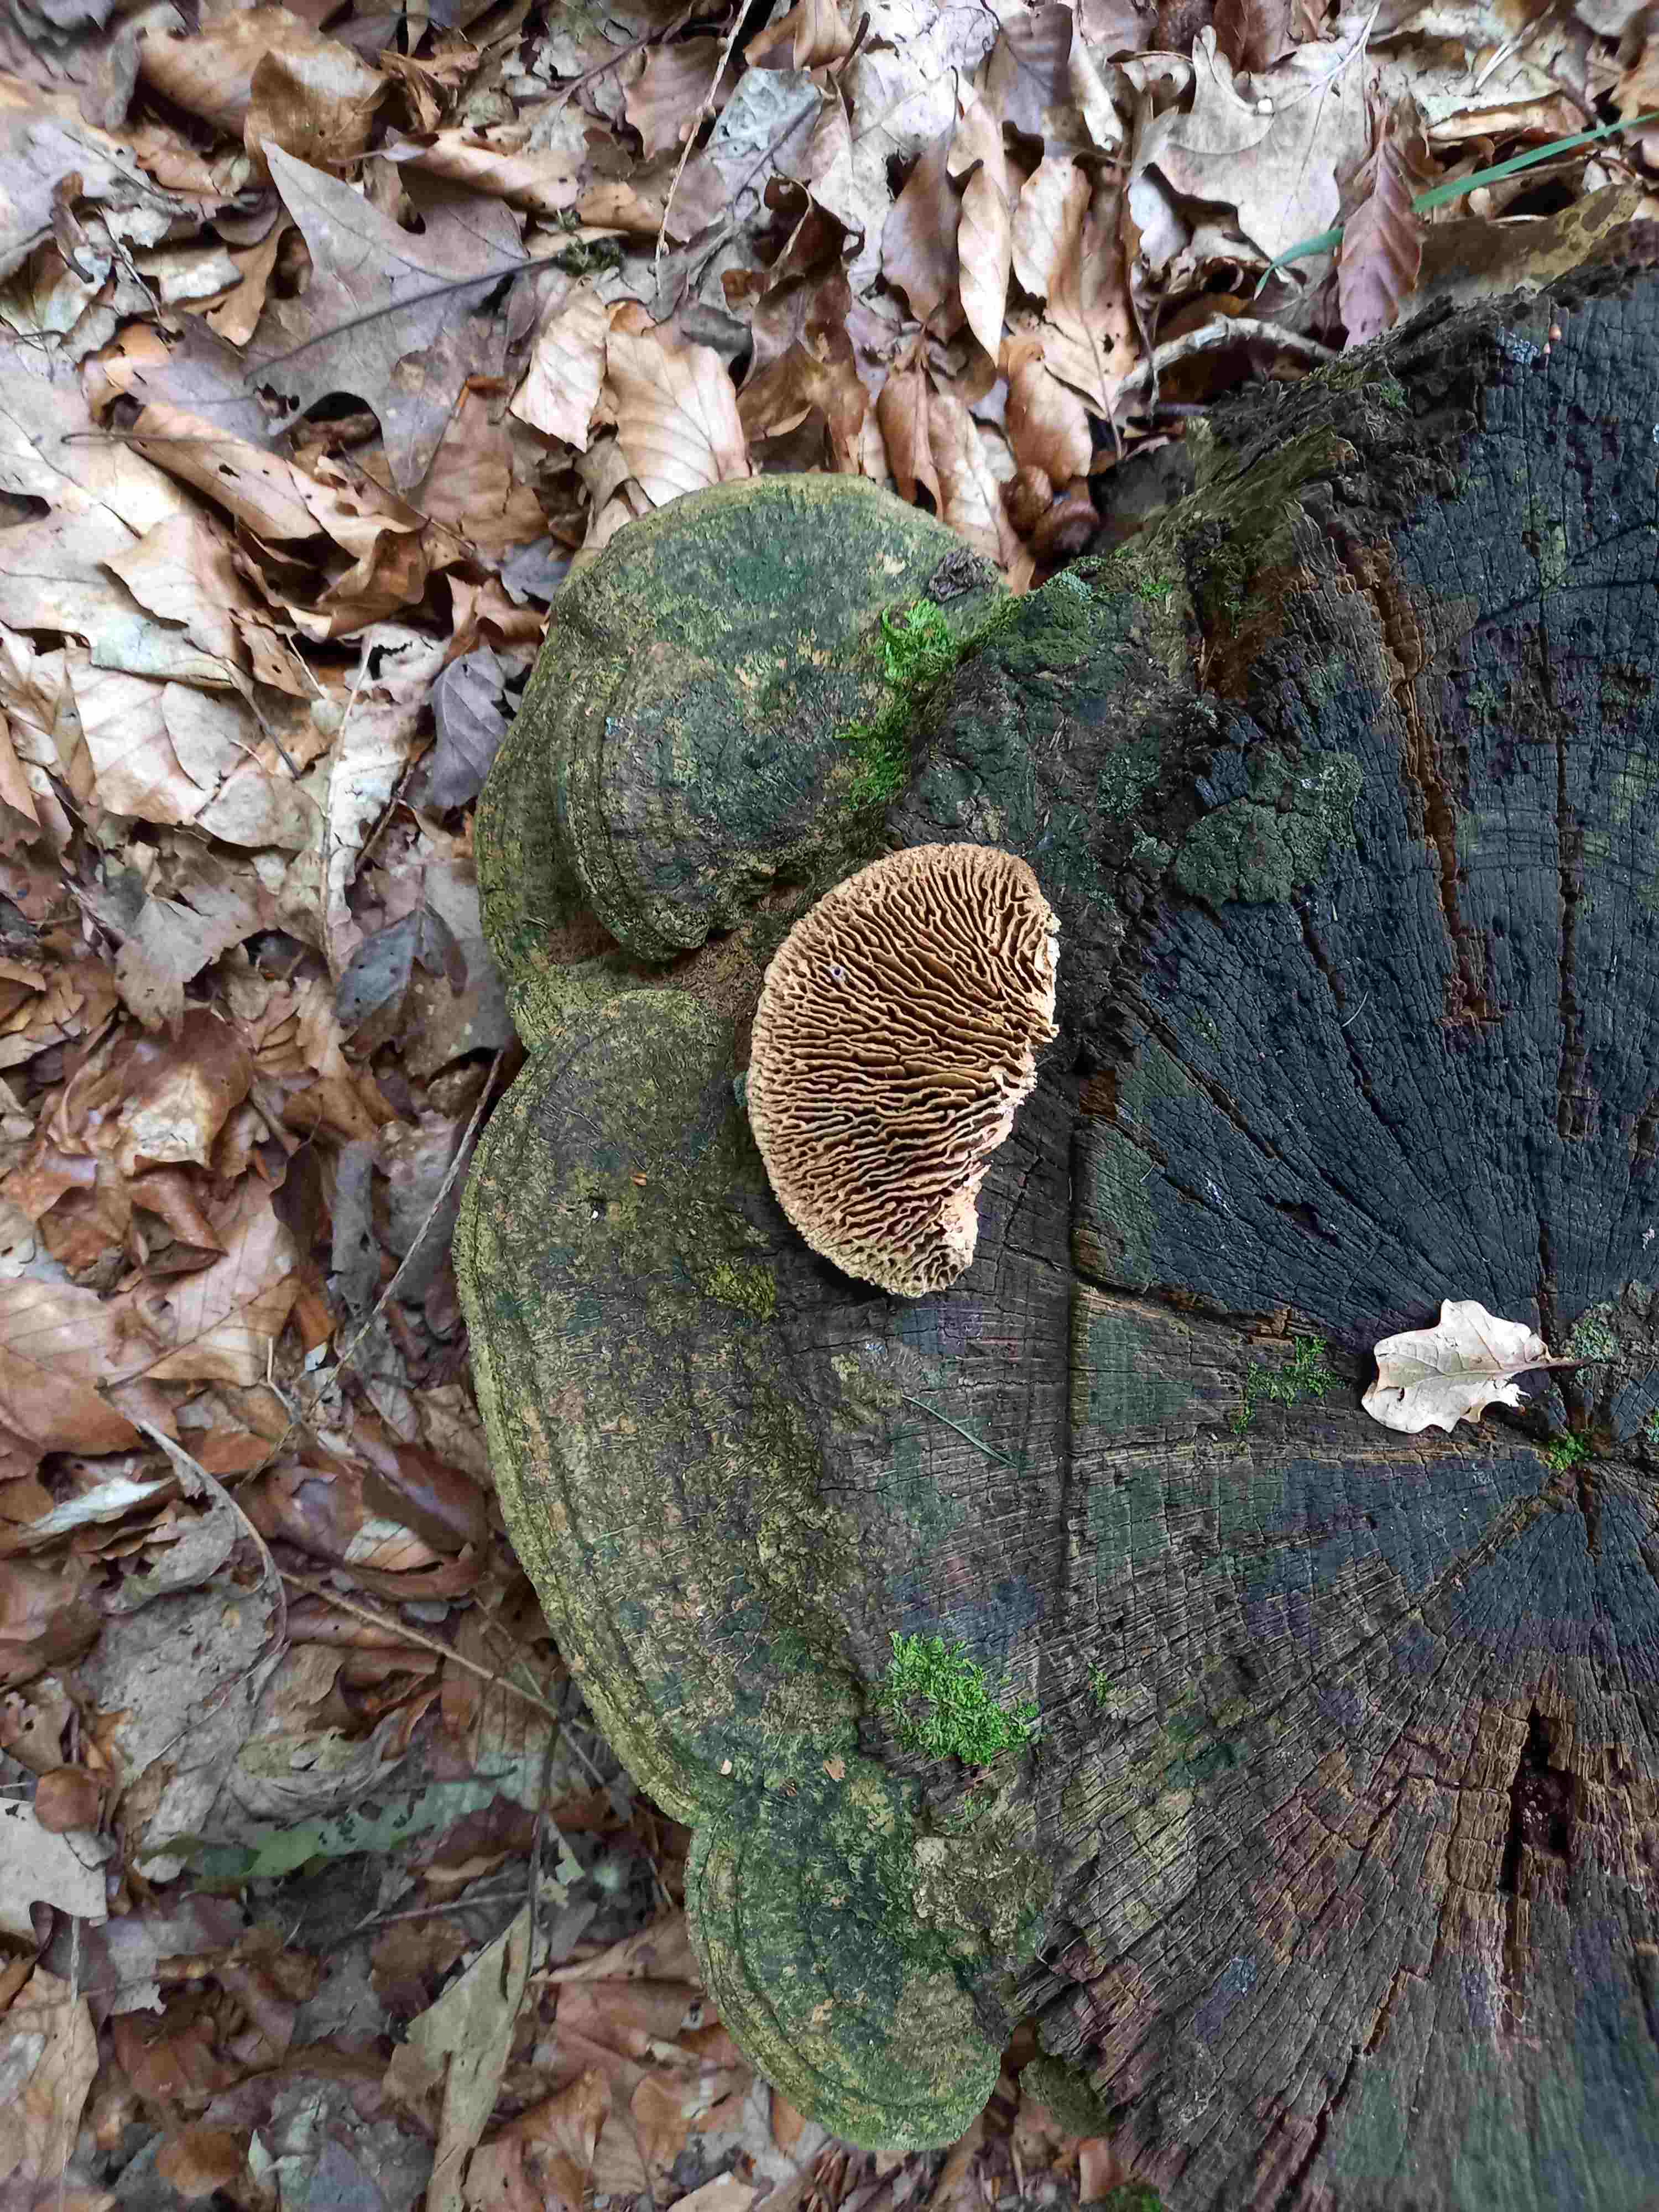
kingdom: Fungi
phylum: Basidiomycota
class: Agaricomycetes
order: Polyporales
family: Fomitopsidaceae
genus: Daedalea
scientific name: Daedalea quercina
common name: ege-labyrintsvamp
